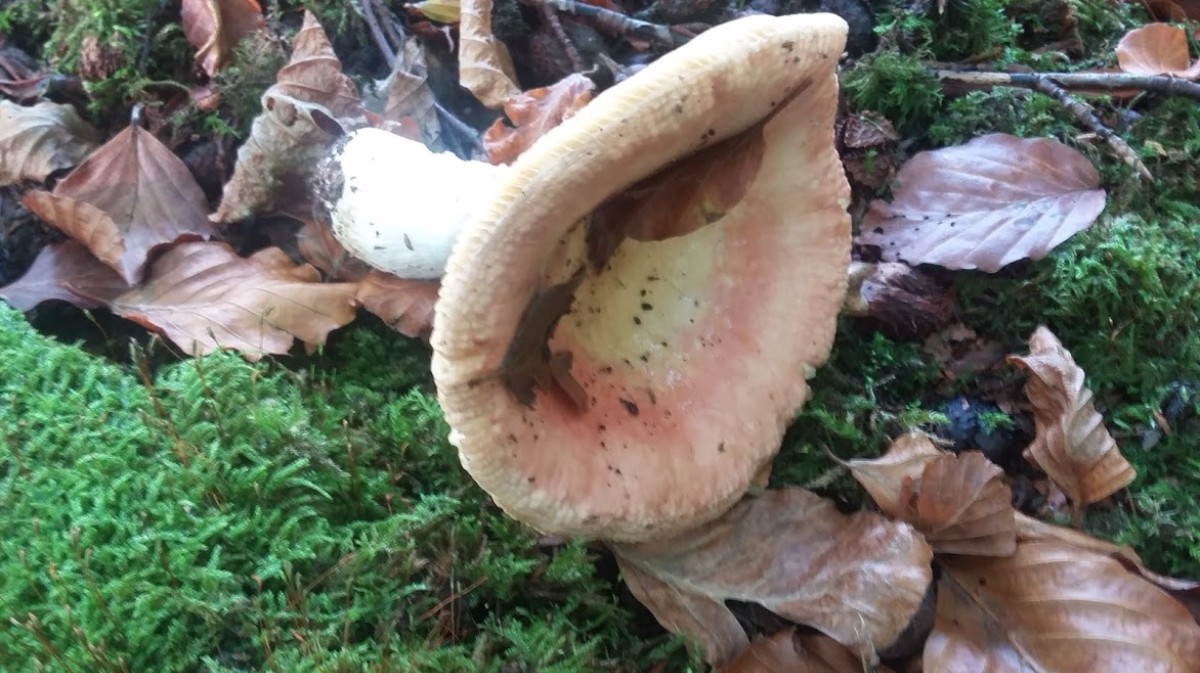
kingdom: Fungi
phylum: Basidiomycota
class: Agaricomycetes
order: Russulales
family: Russulaceae
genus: Russula
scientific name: Russula veternosa
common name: blødkødet skørhat
